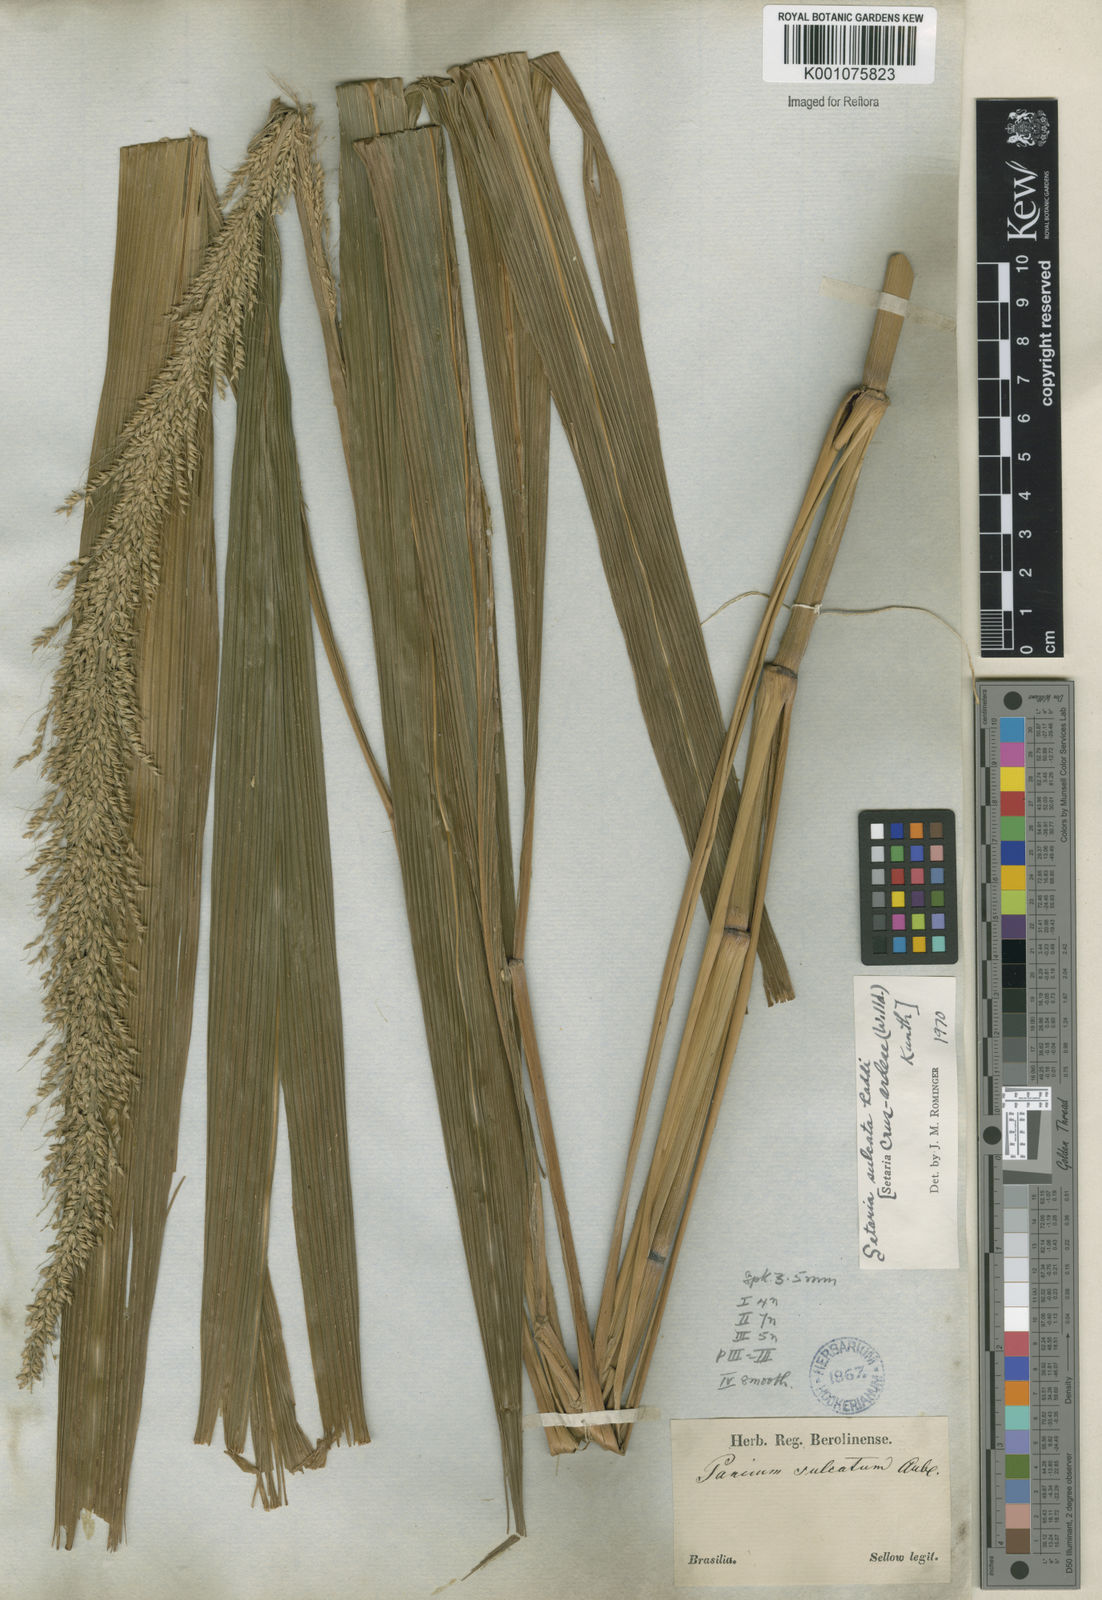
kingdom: Plantae
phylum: Tracheophyta
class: Liliopsida
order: Poales
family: Poaceae
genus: Setaria
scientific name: Setaria sulcata
